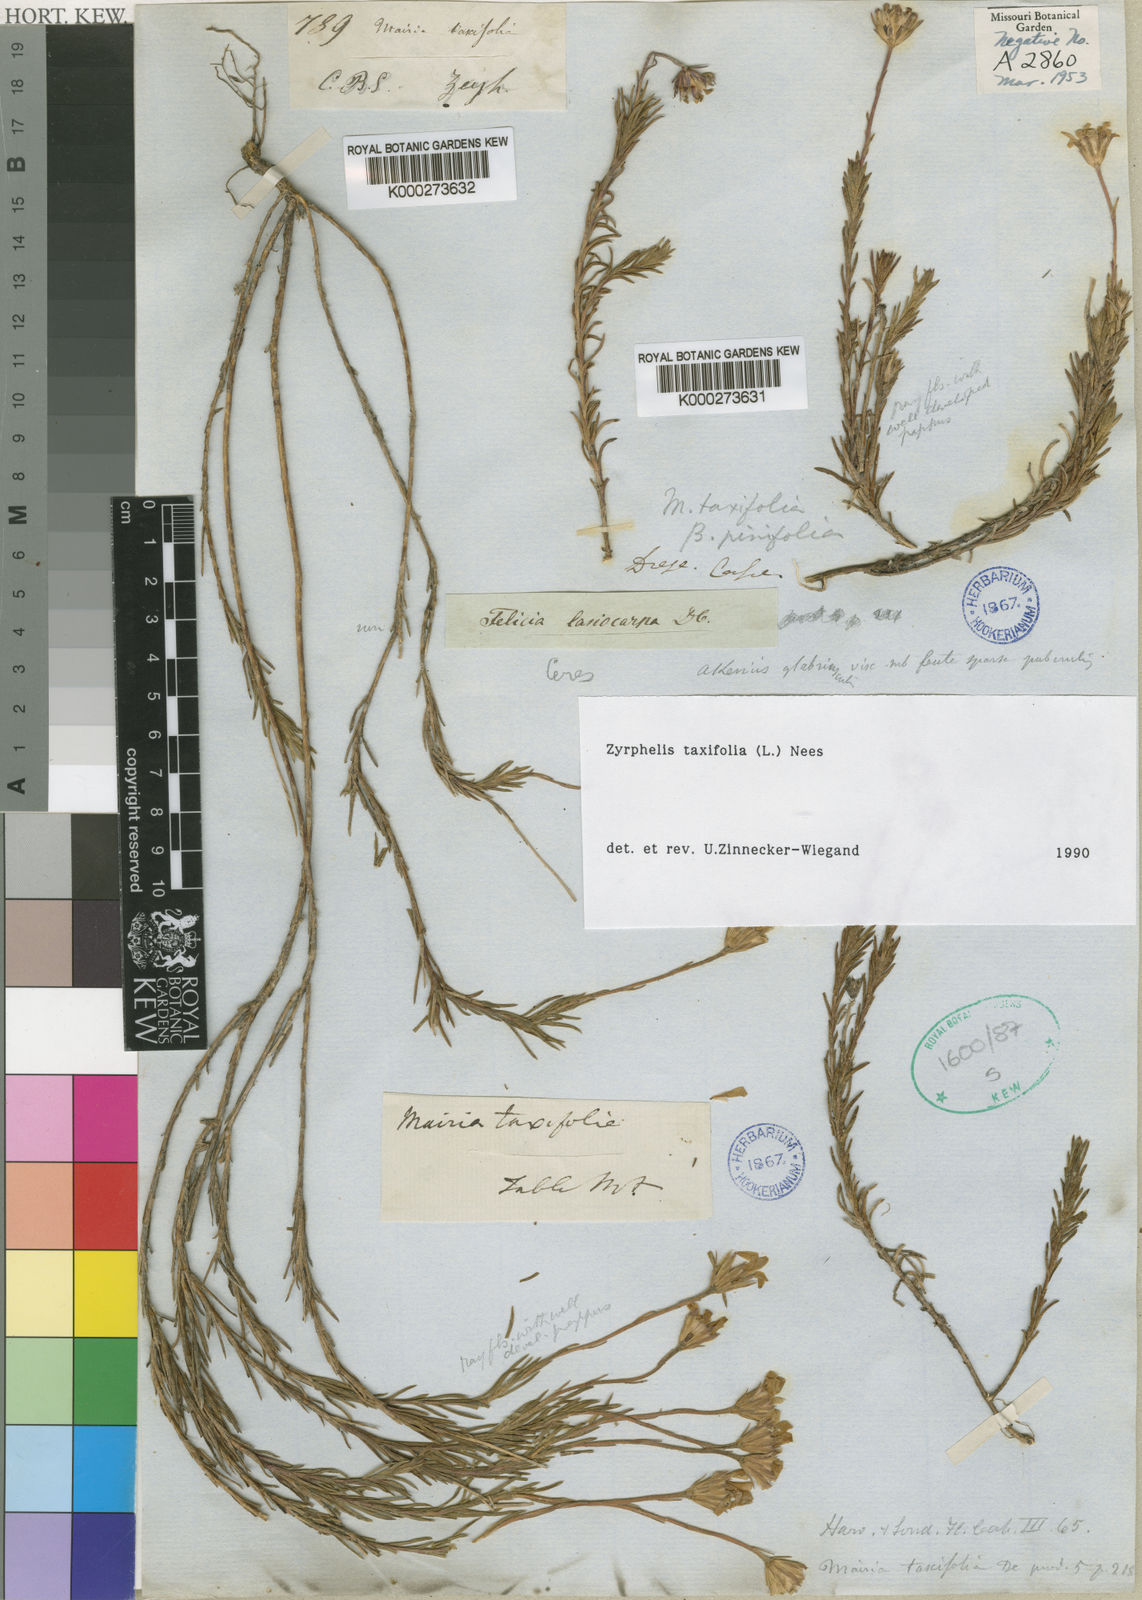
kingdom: Plantae
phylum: Tracheophyta
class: Magnoliopsida
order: Asterales
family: Asteraceae
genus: Zyrphelis
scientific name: Zyrphelis taxifolia
